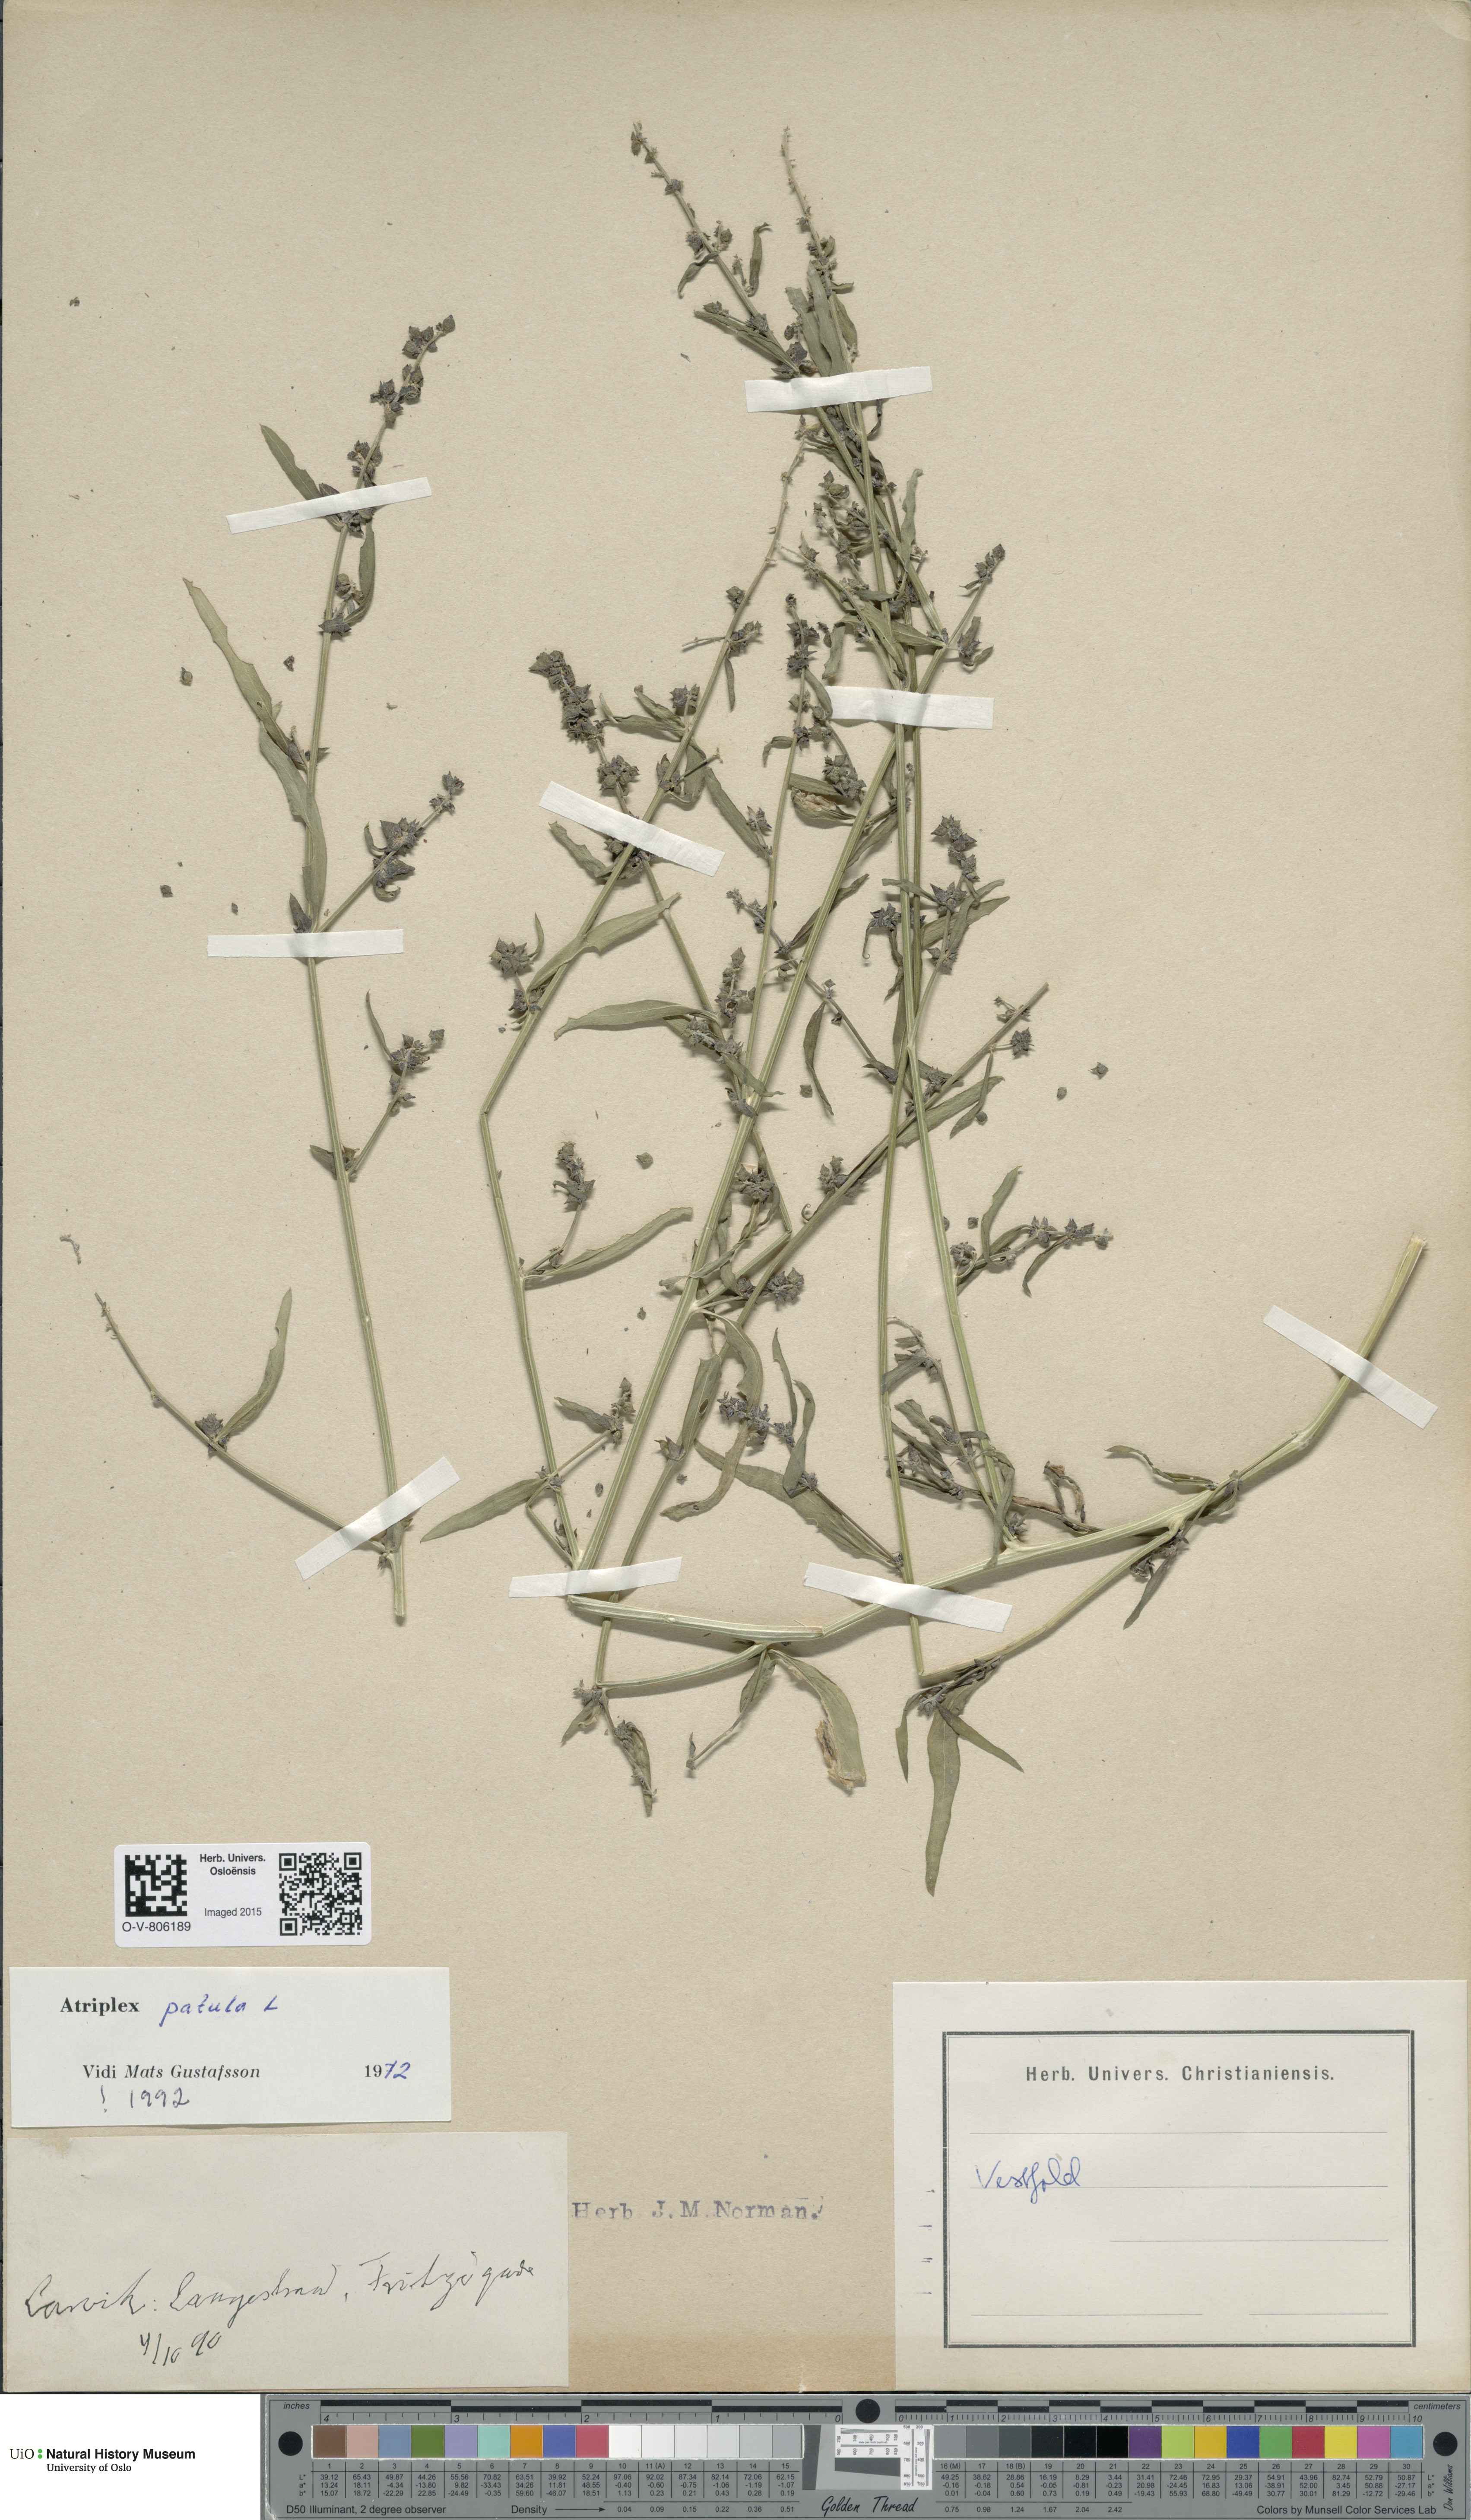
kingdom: Plantae
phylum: Tracheophyta
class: Magnoliopsida
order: Caryophyllales
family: Amaranthaceae
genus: Atriplex
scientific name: Atriplex patula
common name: Common orache
